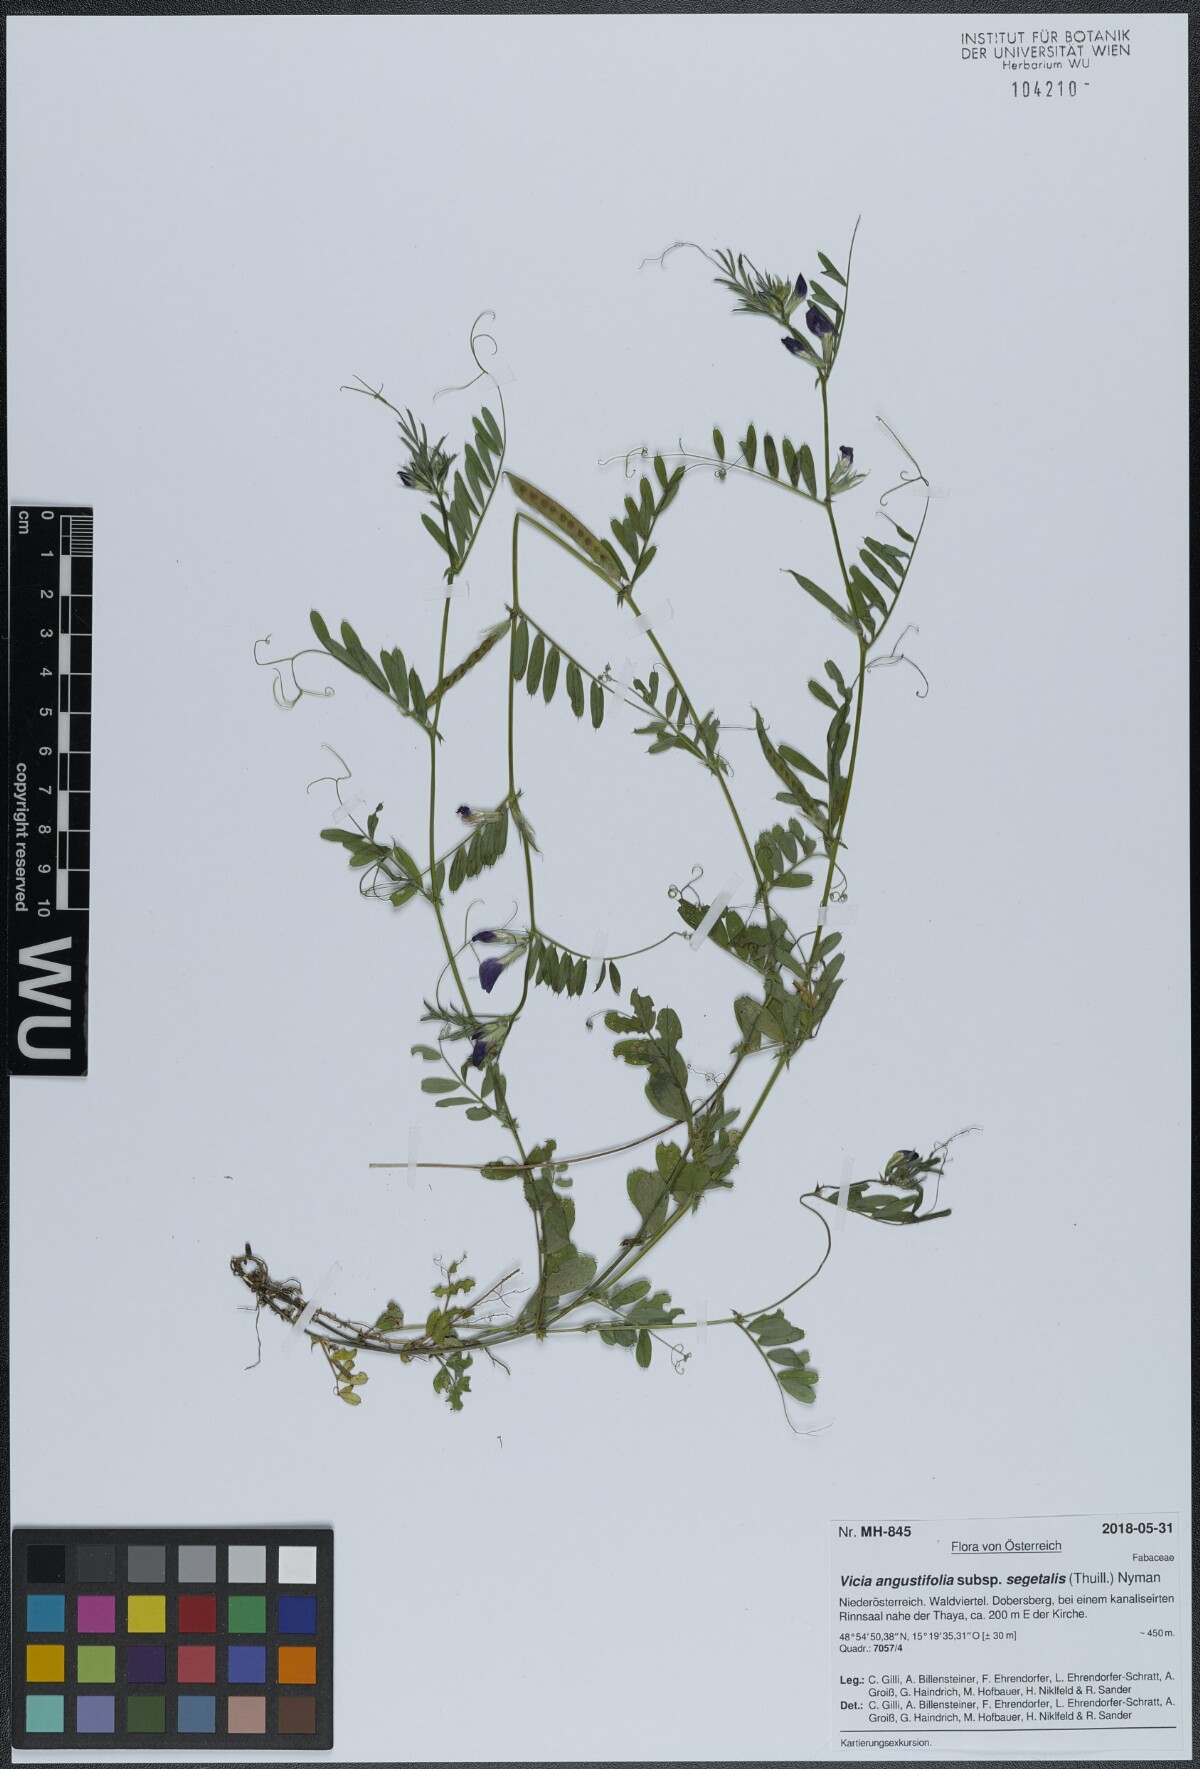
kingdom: Plantae
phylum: Tracheophyta
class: Magnoliopsida
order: Fabales
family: Fabaceae
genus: Vicia
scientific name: Vicia sativa
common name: Garden vetch
